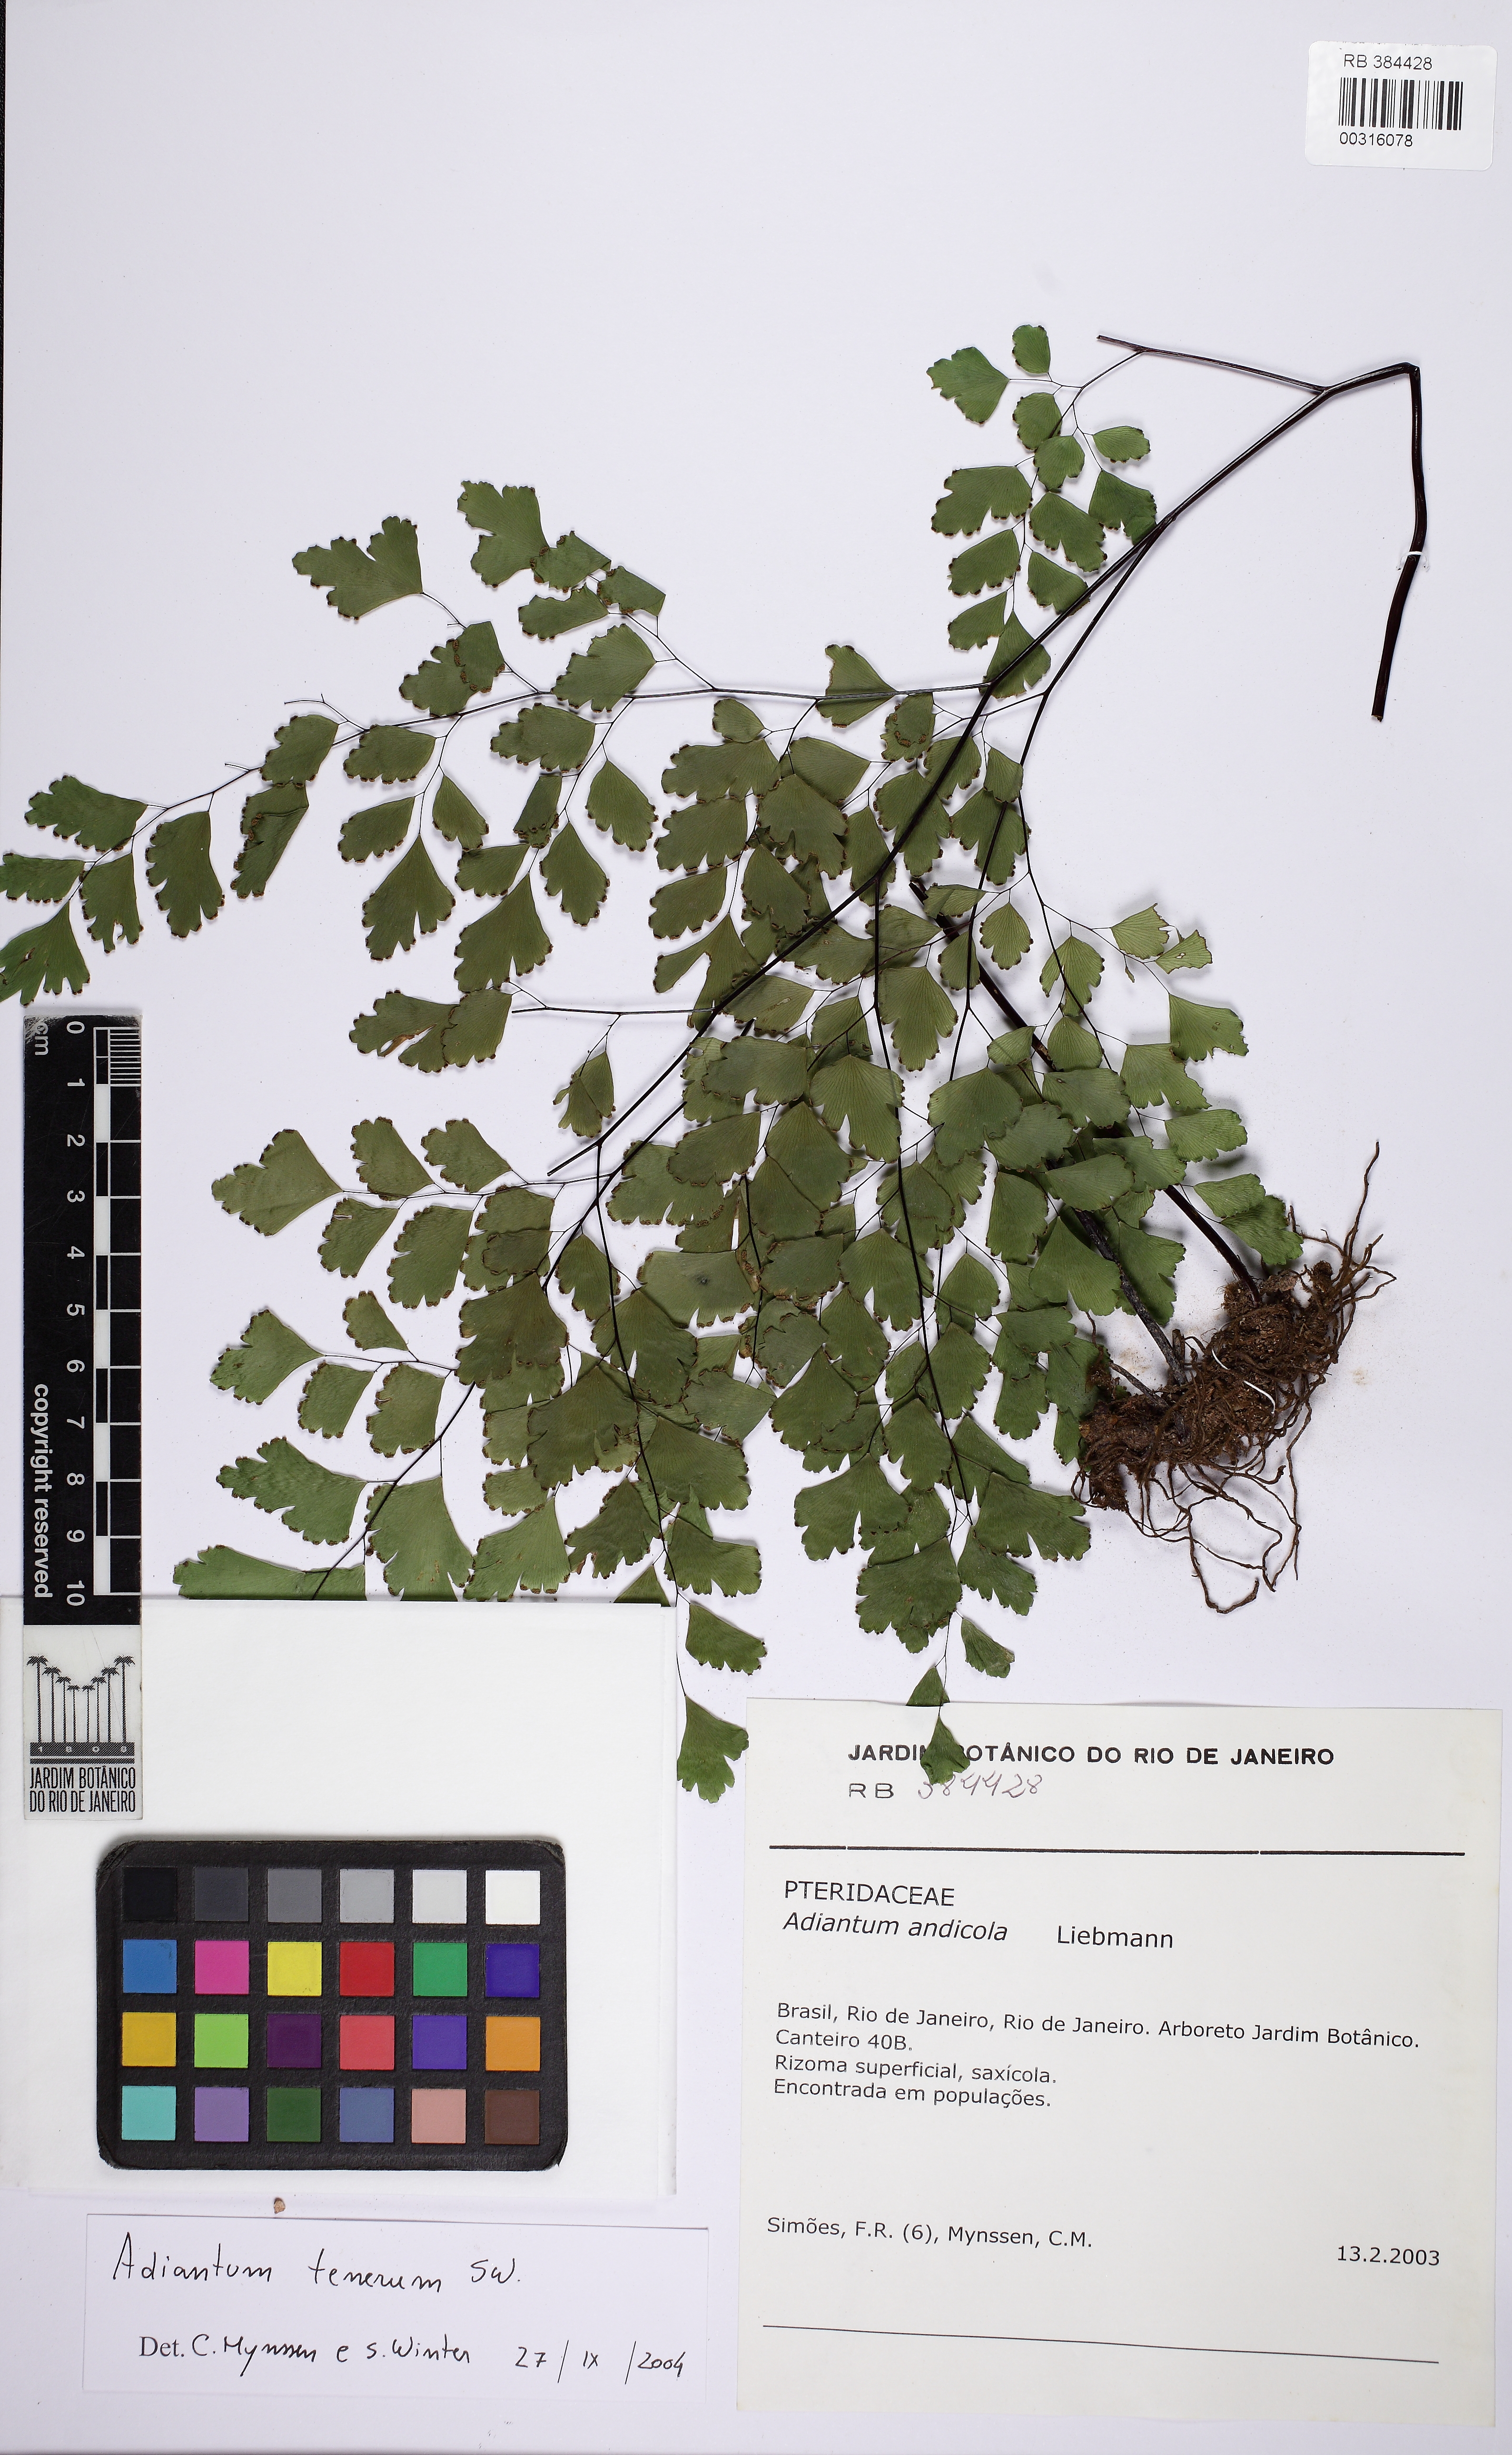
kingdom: Plantae
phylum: Tracheophyta
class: Polypodiopsida
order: Polypodiales
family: Pteridaceae
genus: Adiantum
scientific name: Adiantum tenerum
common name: Fan maidenhair
